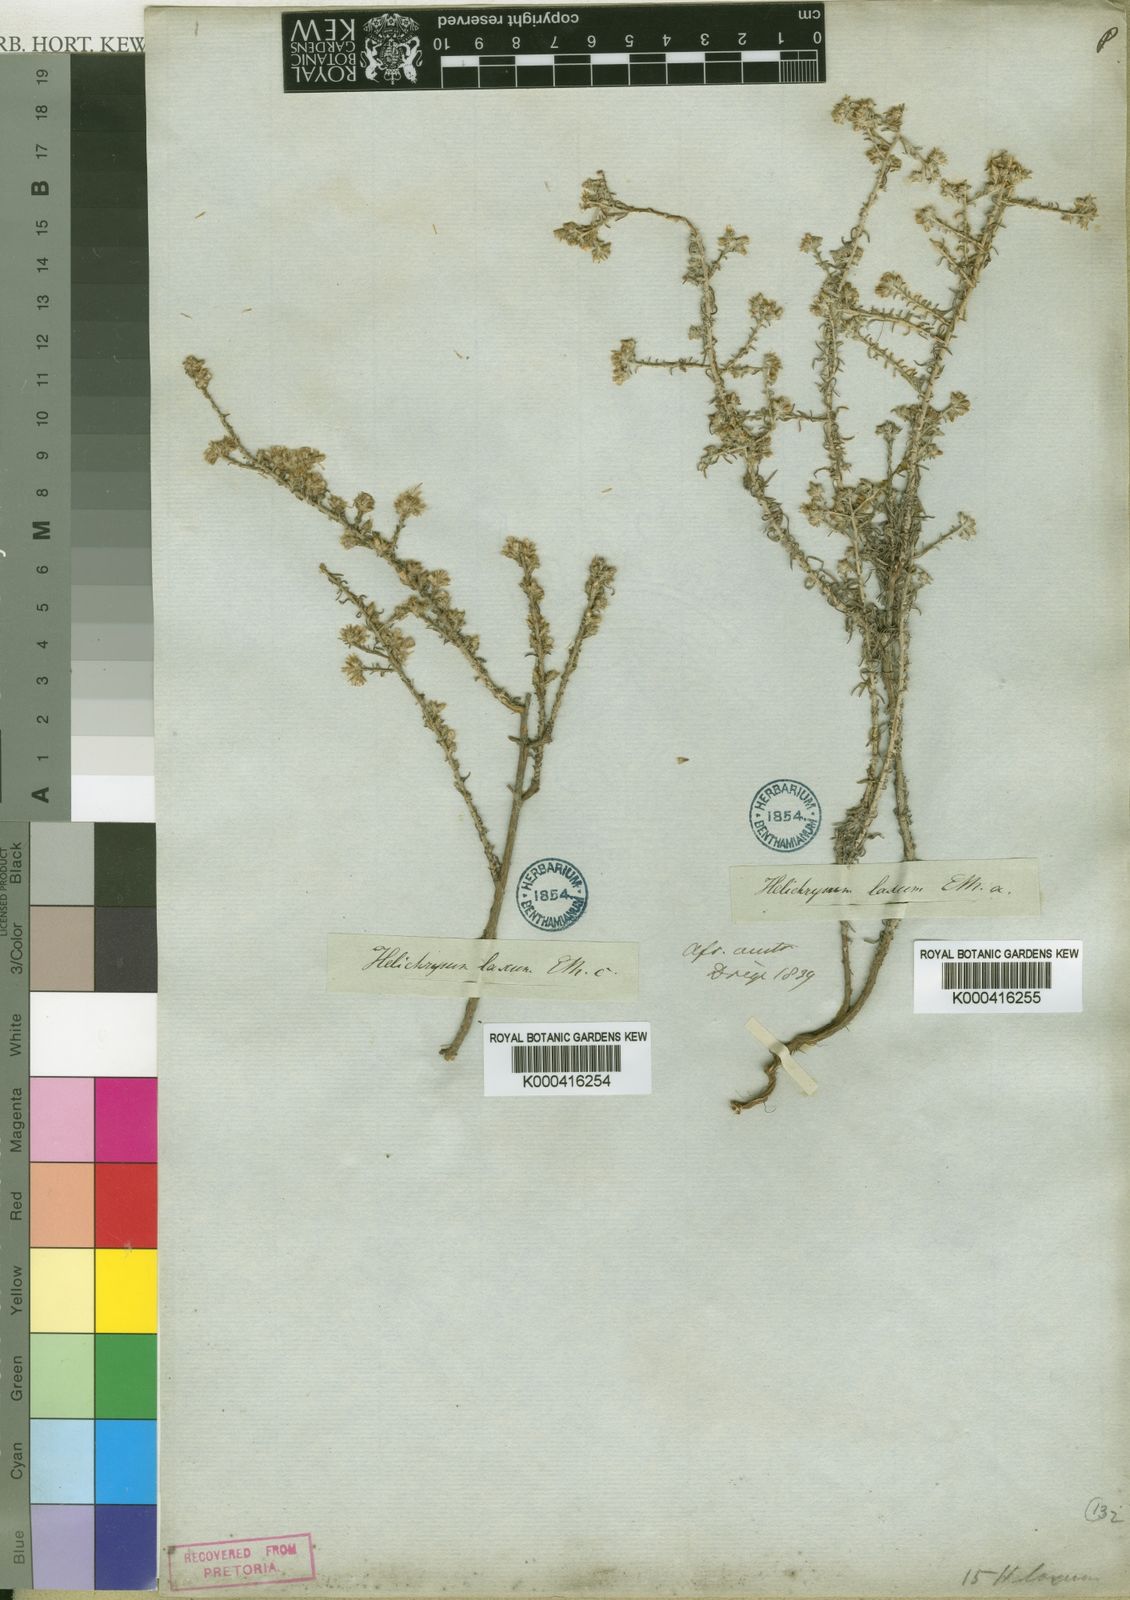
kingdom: Plantae
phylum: Tracheophyta
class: Magnoliopsida
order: Asterales
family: Asteraceae
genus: Helichrysum
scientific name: Helichrysum asperum
